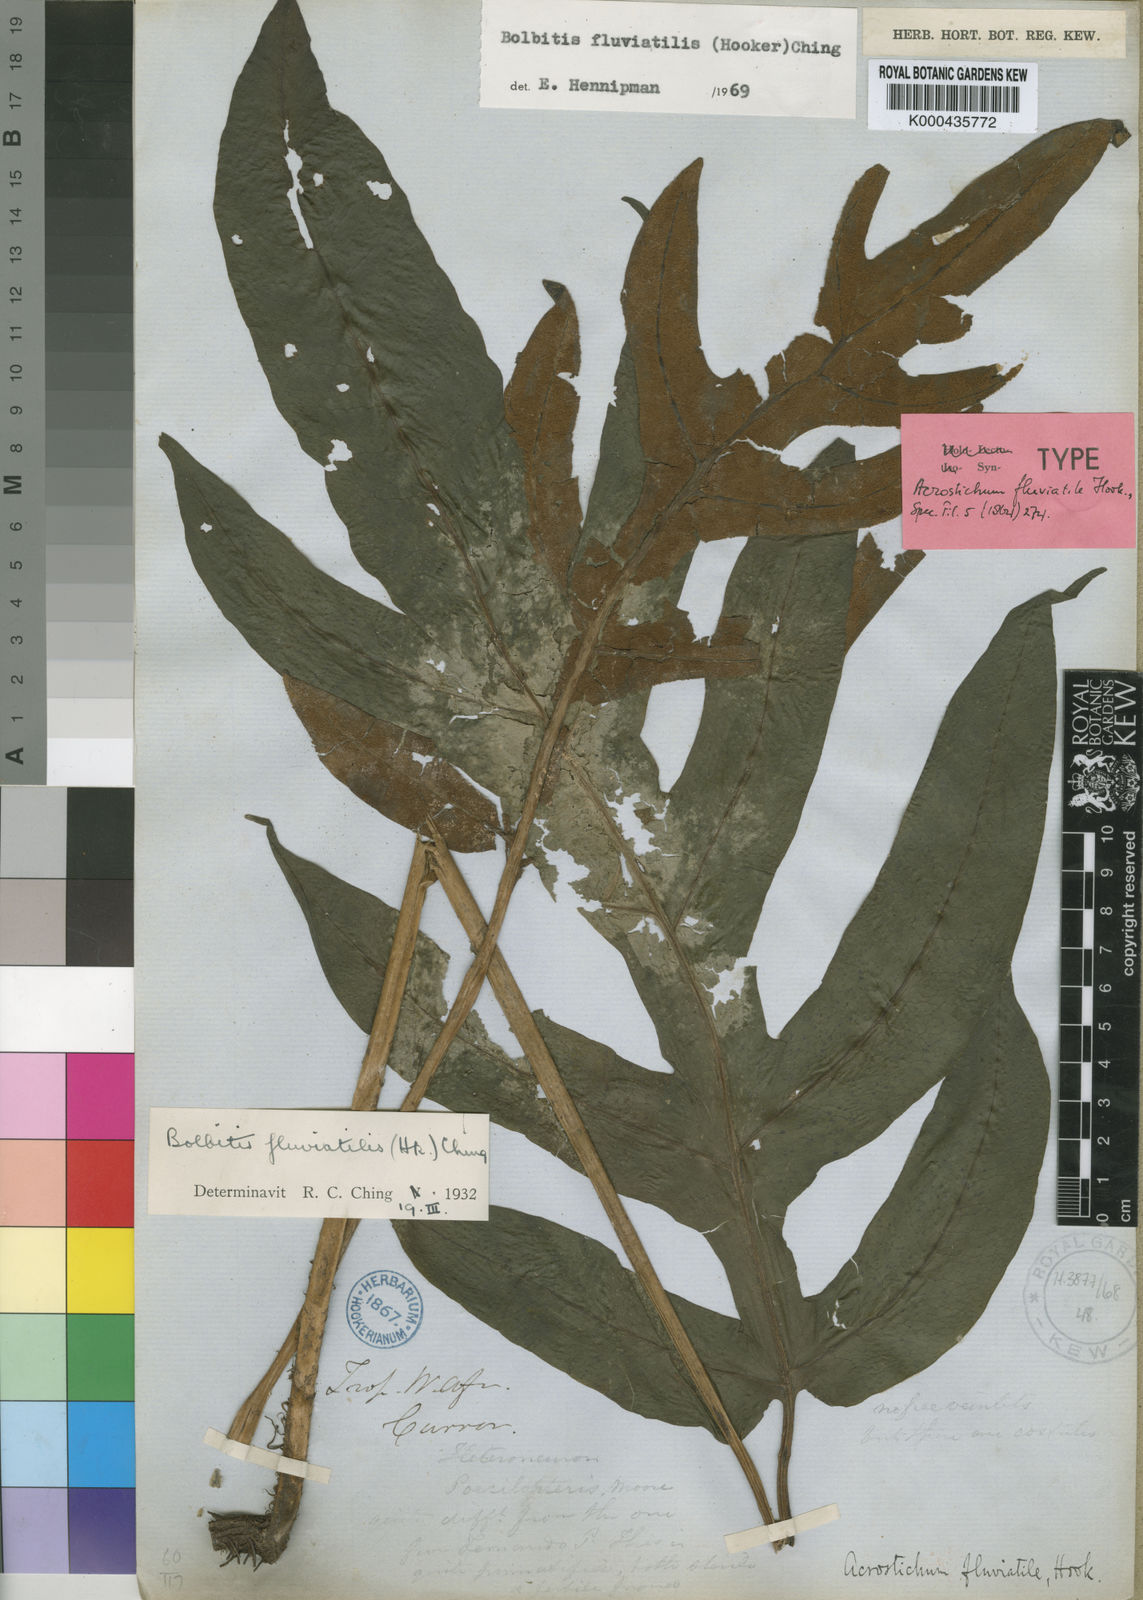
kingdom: Plantae
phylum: Tracheophyta
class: Polypodiopsida
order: Polypodiales
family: Dryopteridaceae
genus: Bolbitis
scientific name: Bolbitis fluviatilis
